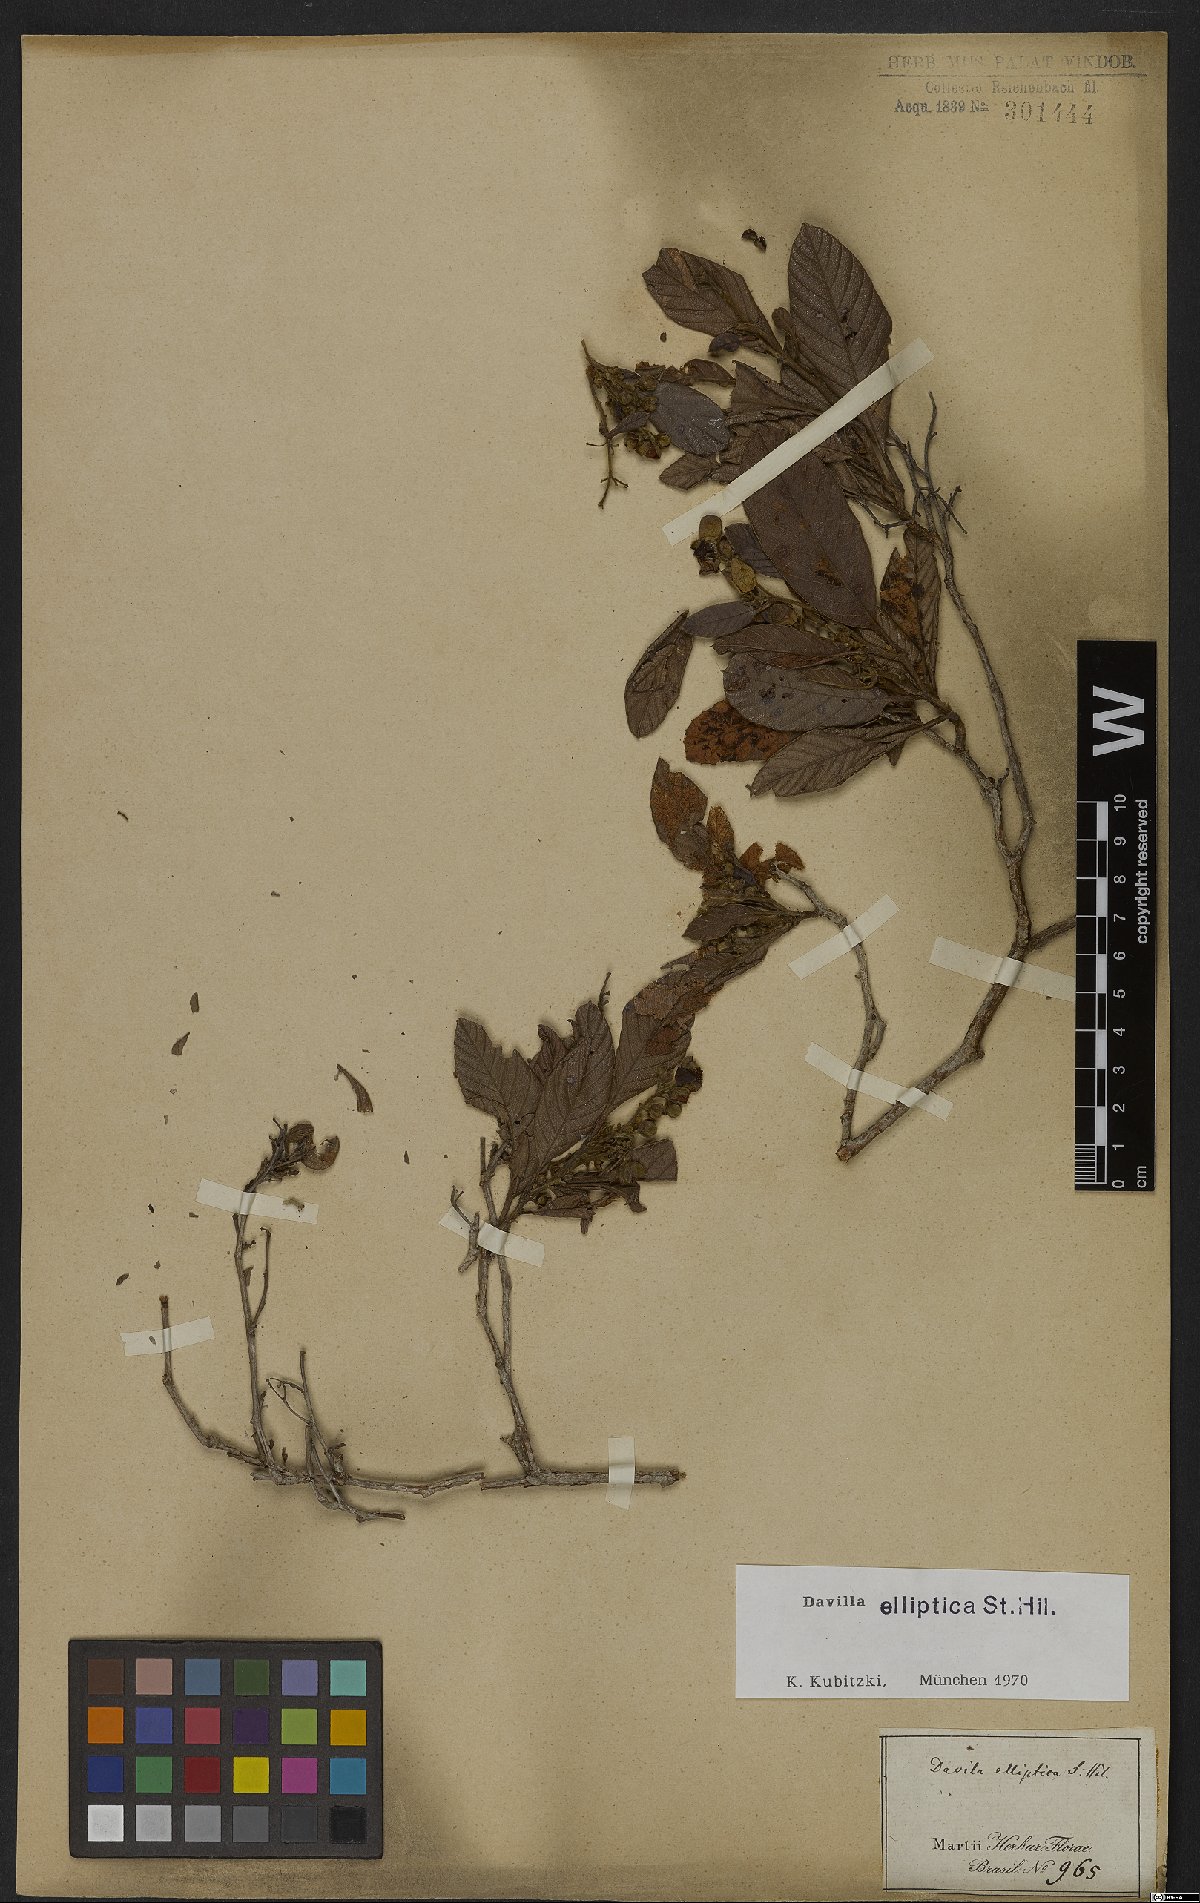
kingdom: Plantae
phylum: Tracheophyta
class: Magnoliopsida
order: Dilleniales
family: Dilleniaceae
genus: Davilla
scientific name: Davilla elliptica
